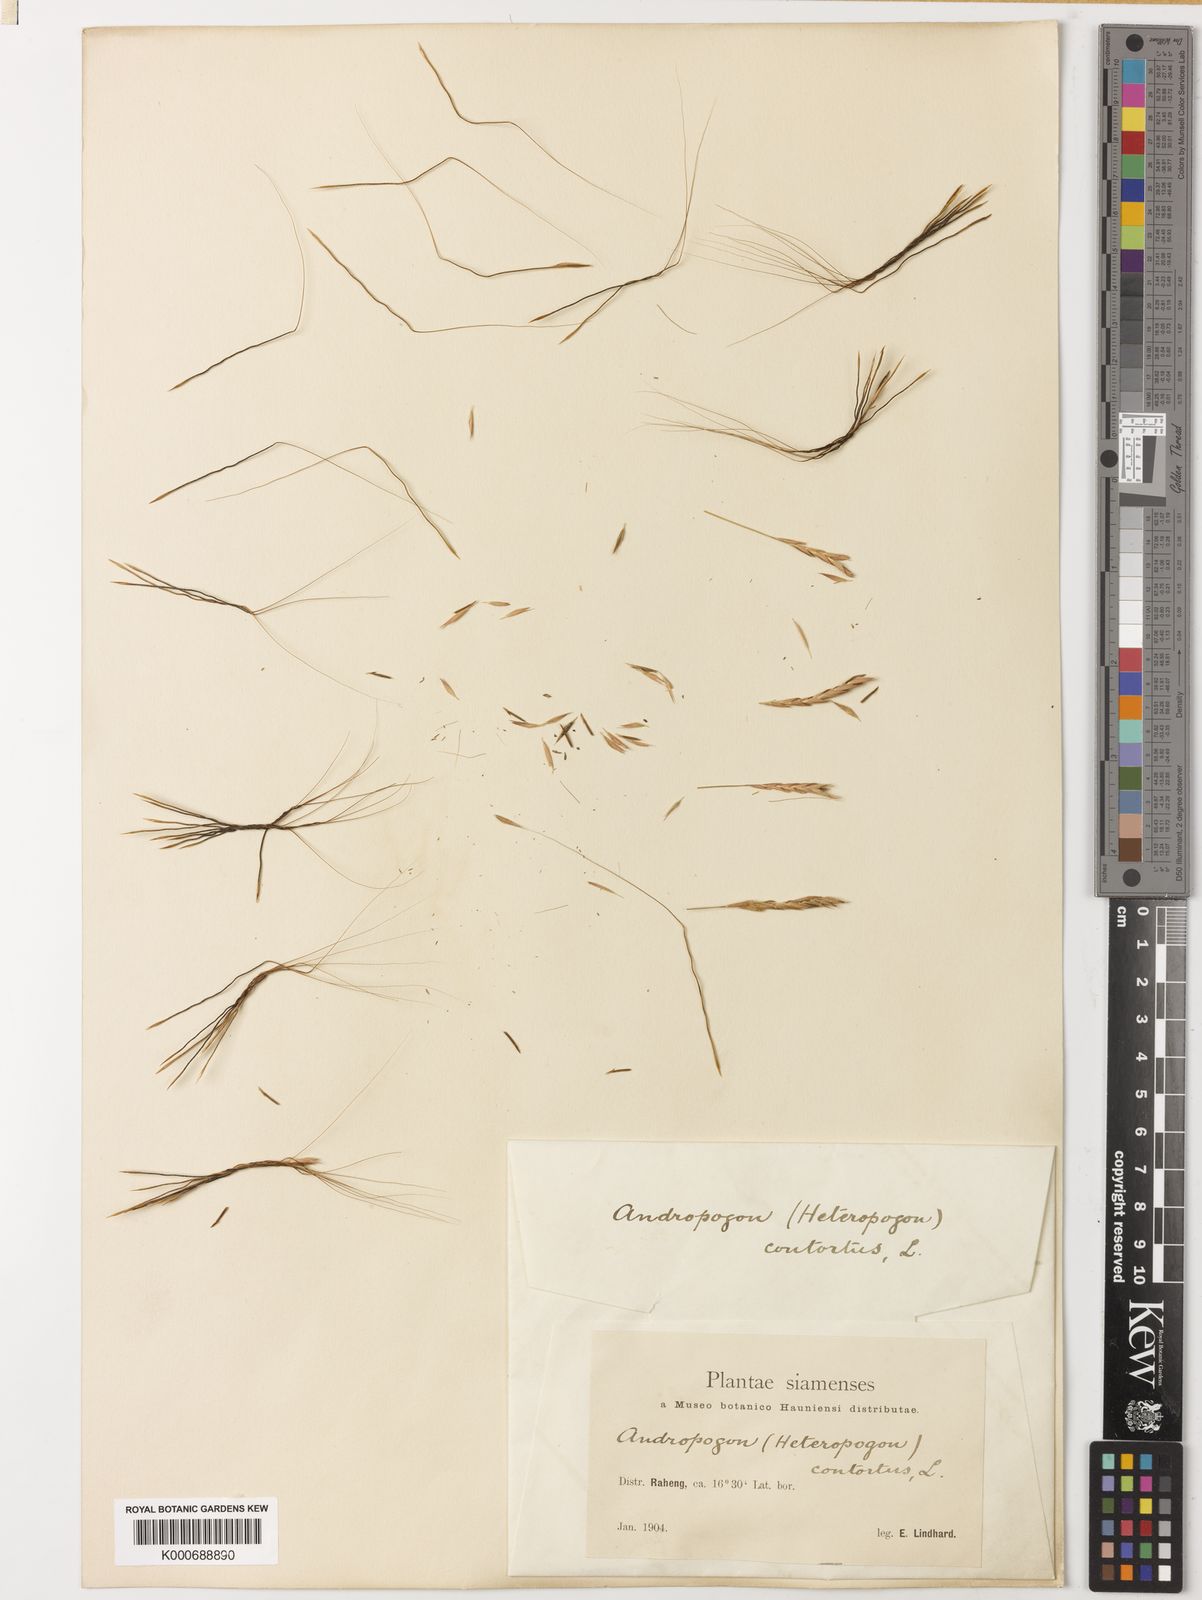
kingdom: Plantae
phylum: Tracheophyta
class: Liliopsida
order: Poales
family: Poaceae
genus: Heteropogon
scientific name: Heteropogon contortus
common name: Tanglehead
